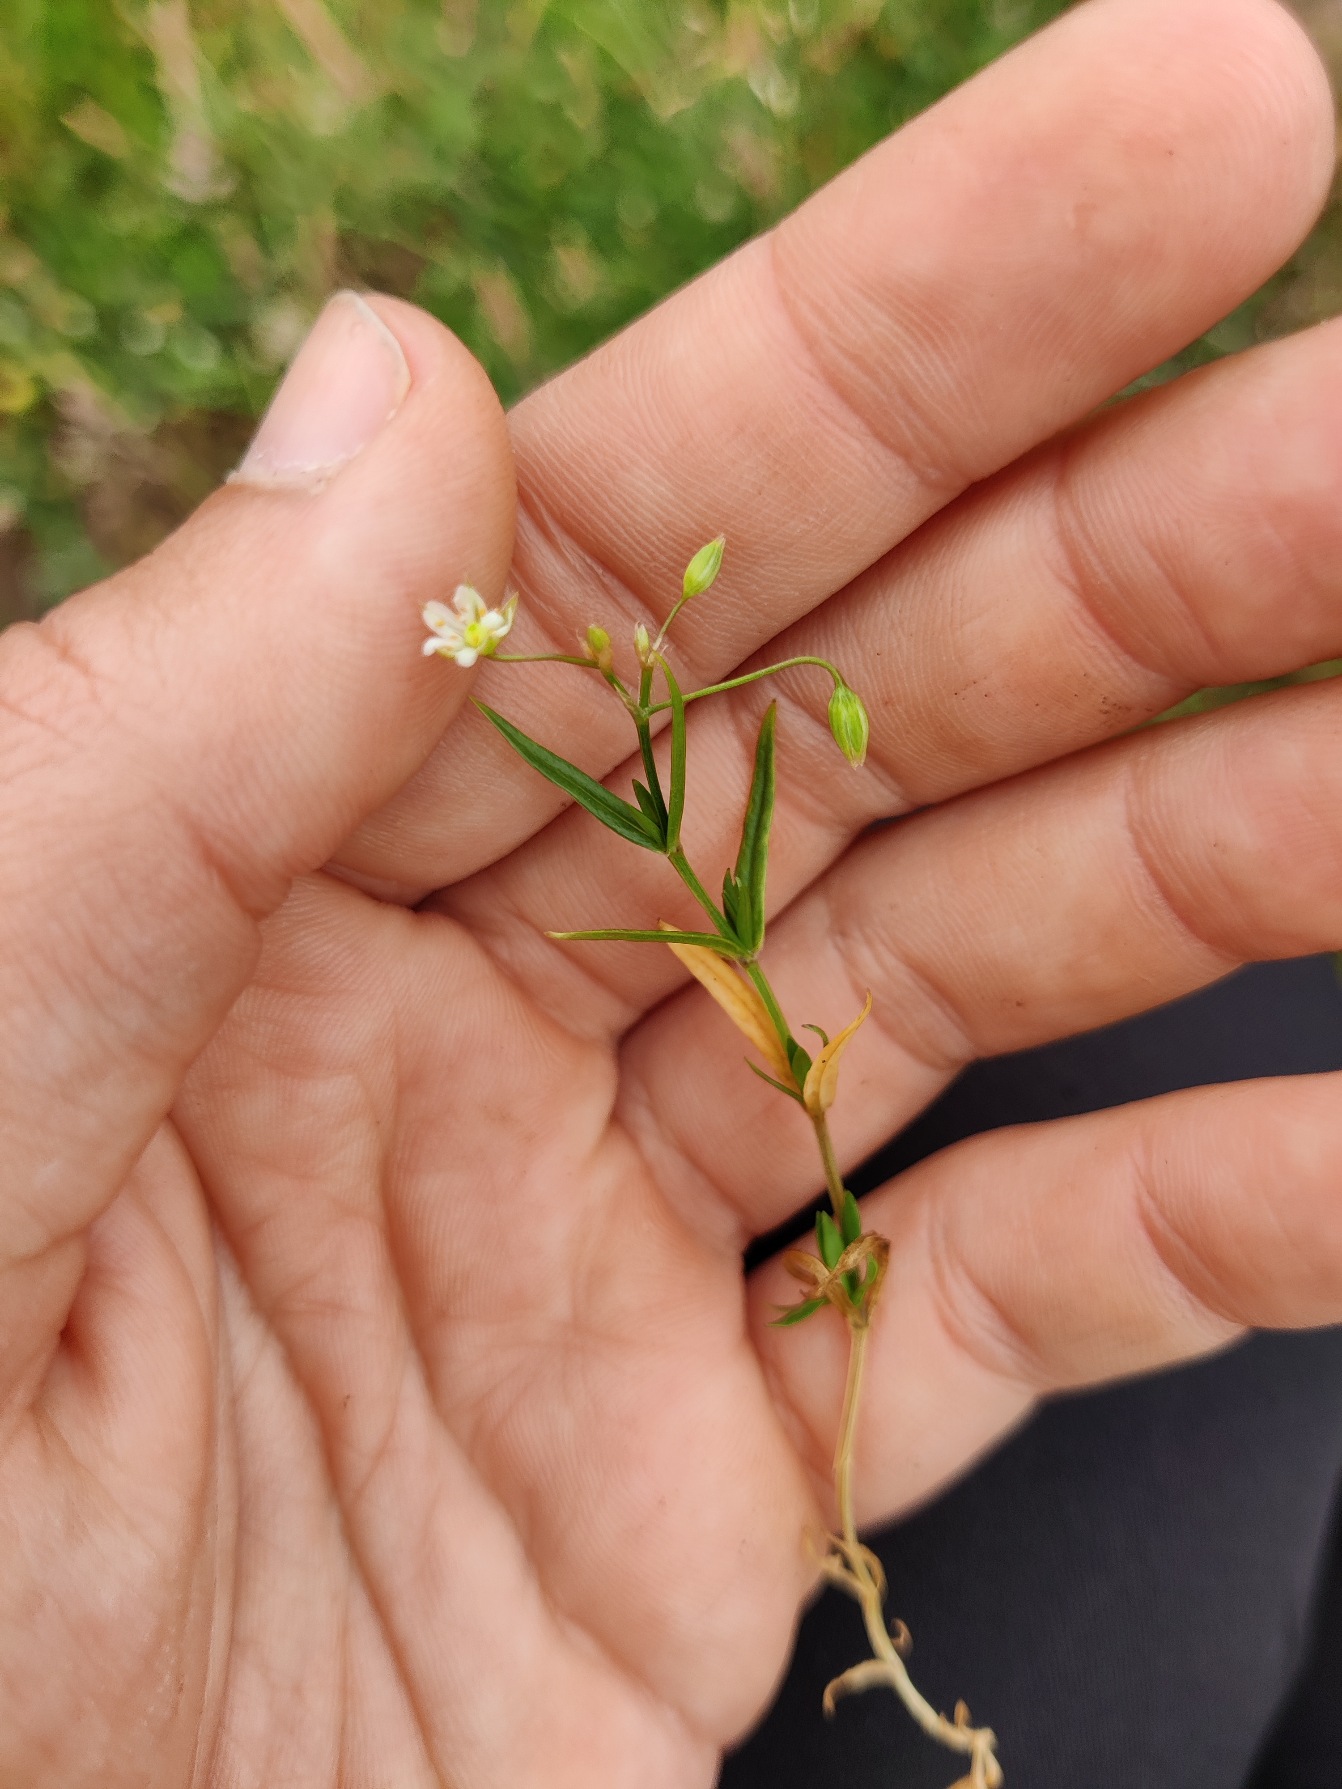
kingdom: Plantae
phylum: Tracheophyta
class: Magnoliopsida
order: Caryophyllales
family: Caryophyllaceae
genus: Stellaria
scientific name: Stellaria graminea
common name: Græsbladet fladstjerne
